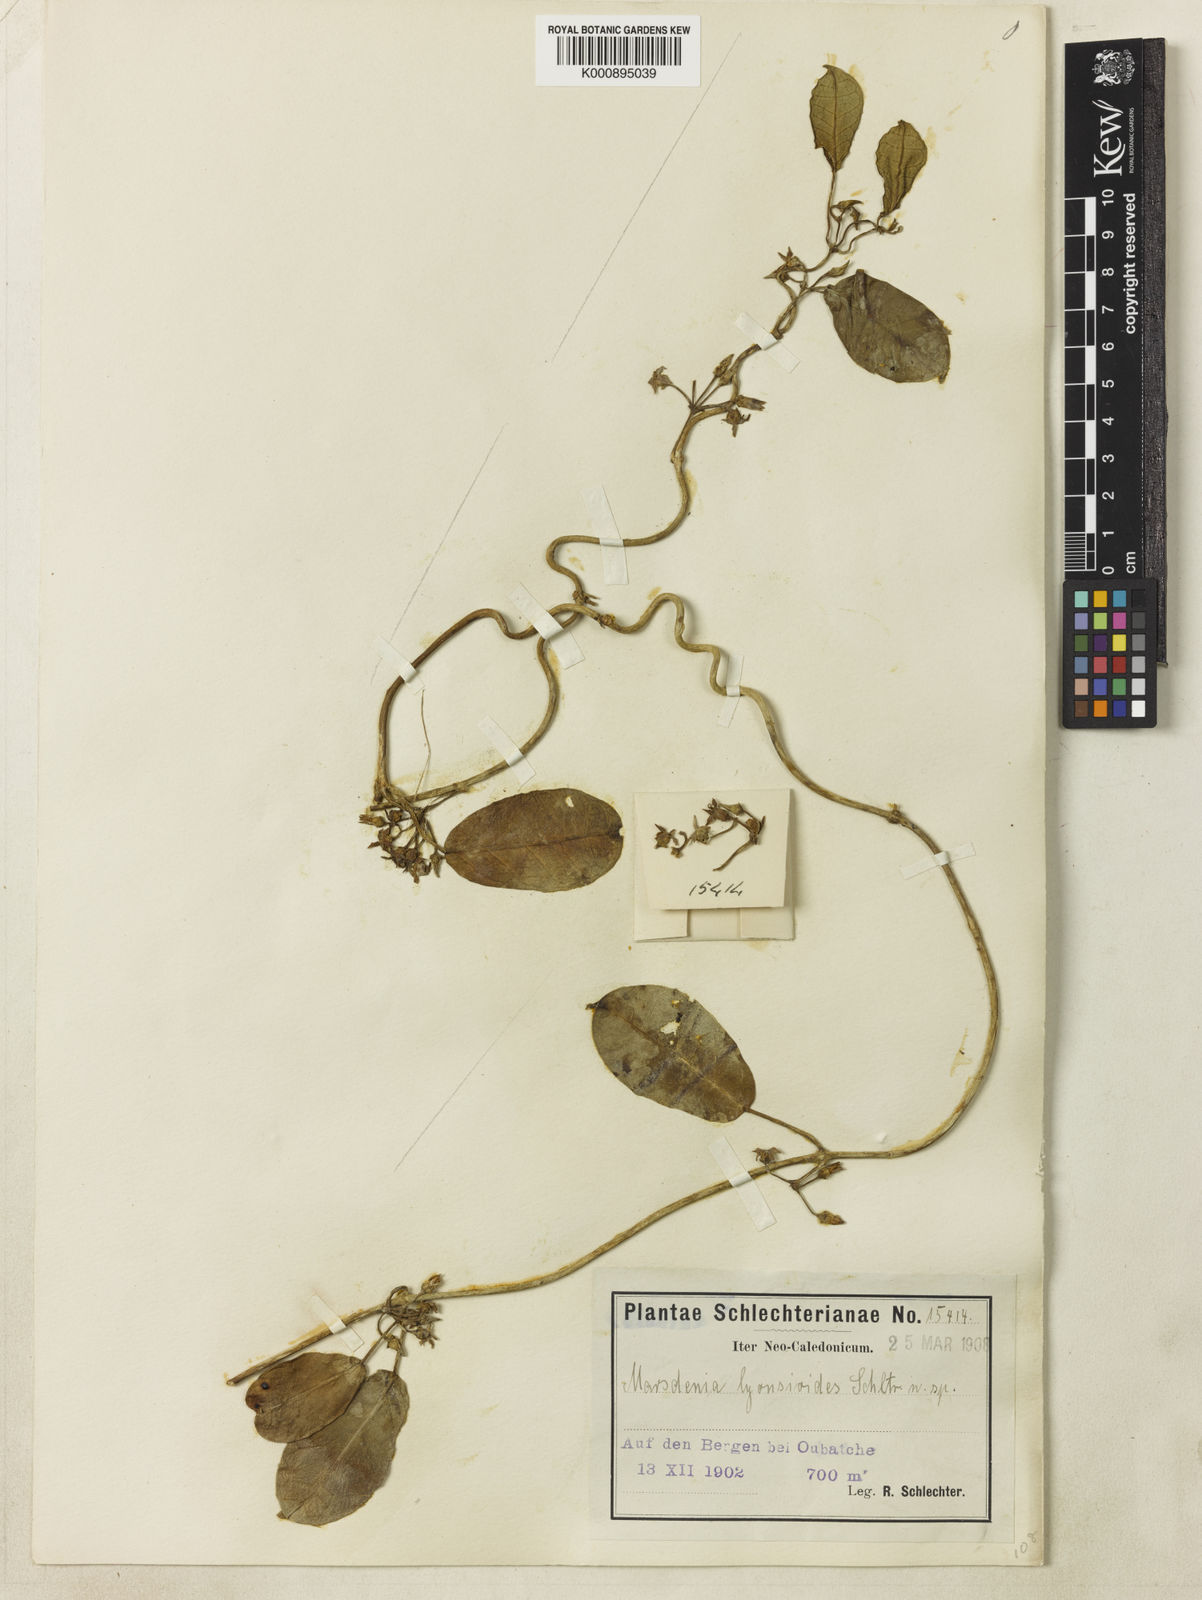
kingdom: Plantae
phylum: Tracheophyta
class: Magnoliopsida
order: Gentianales
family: Apocynaceae
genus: Leichhardtia
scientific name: Leichhardtia lyonsioides
